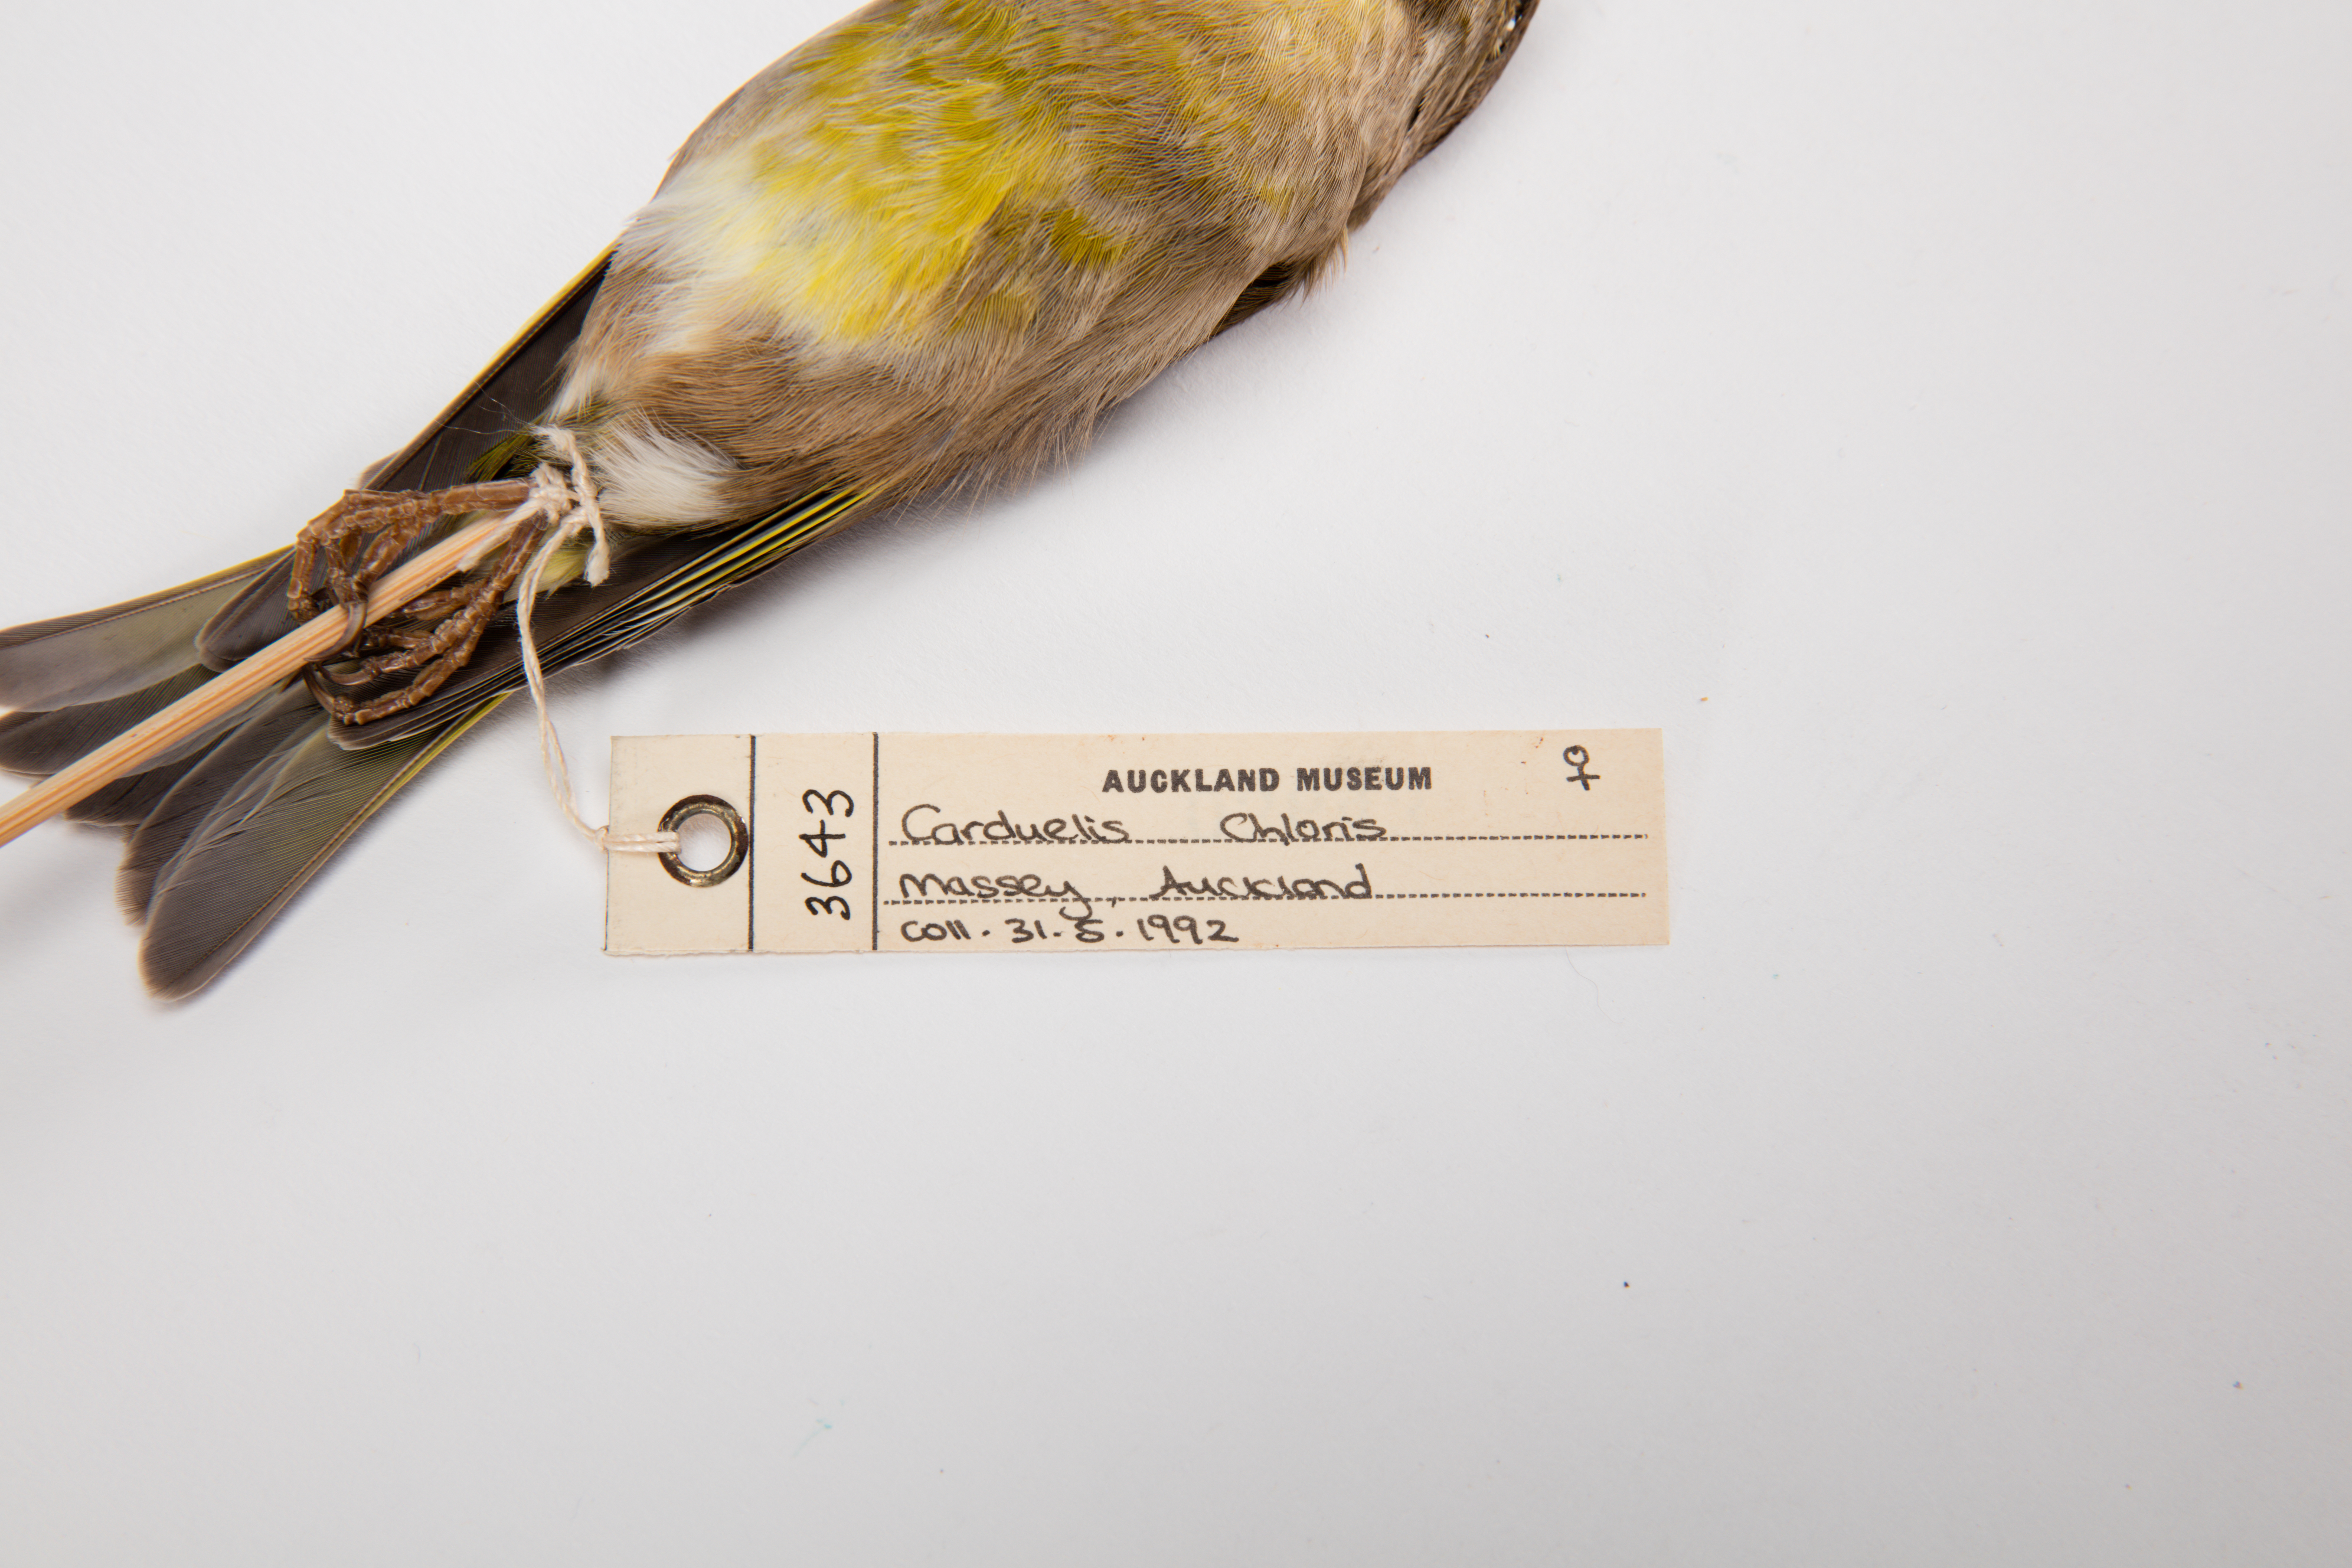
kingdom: Plantae
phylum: Tracheophyta
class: Liliopsida
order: Poales
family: Poaceae
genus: Chloris
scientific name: Chloris chloris
